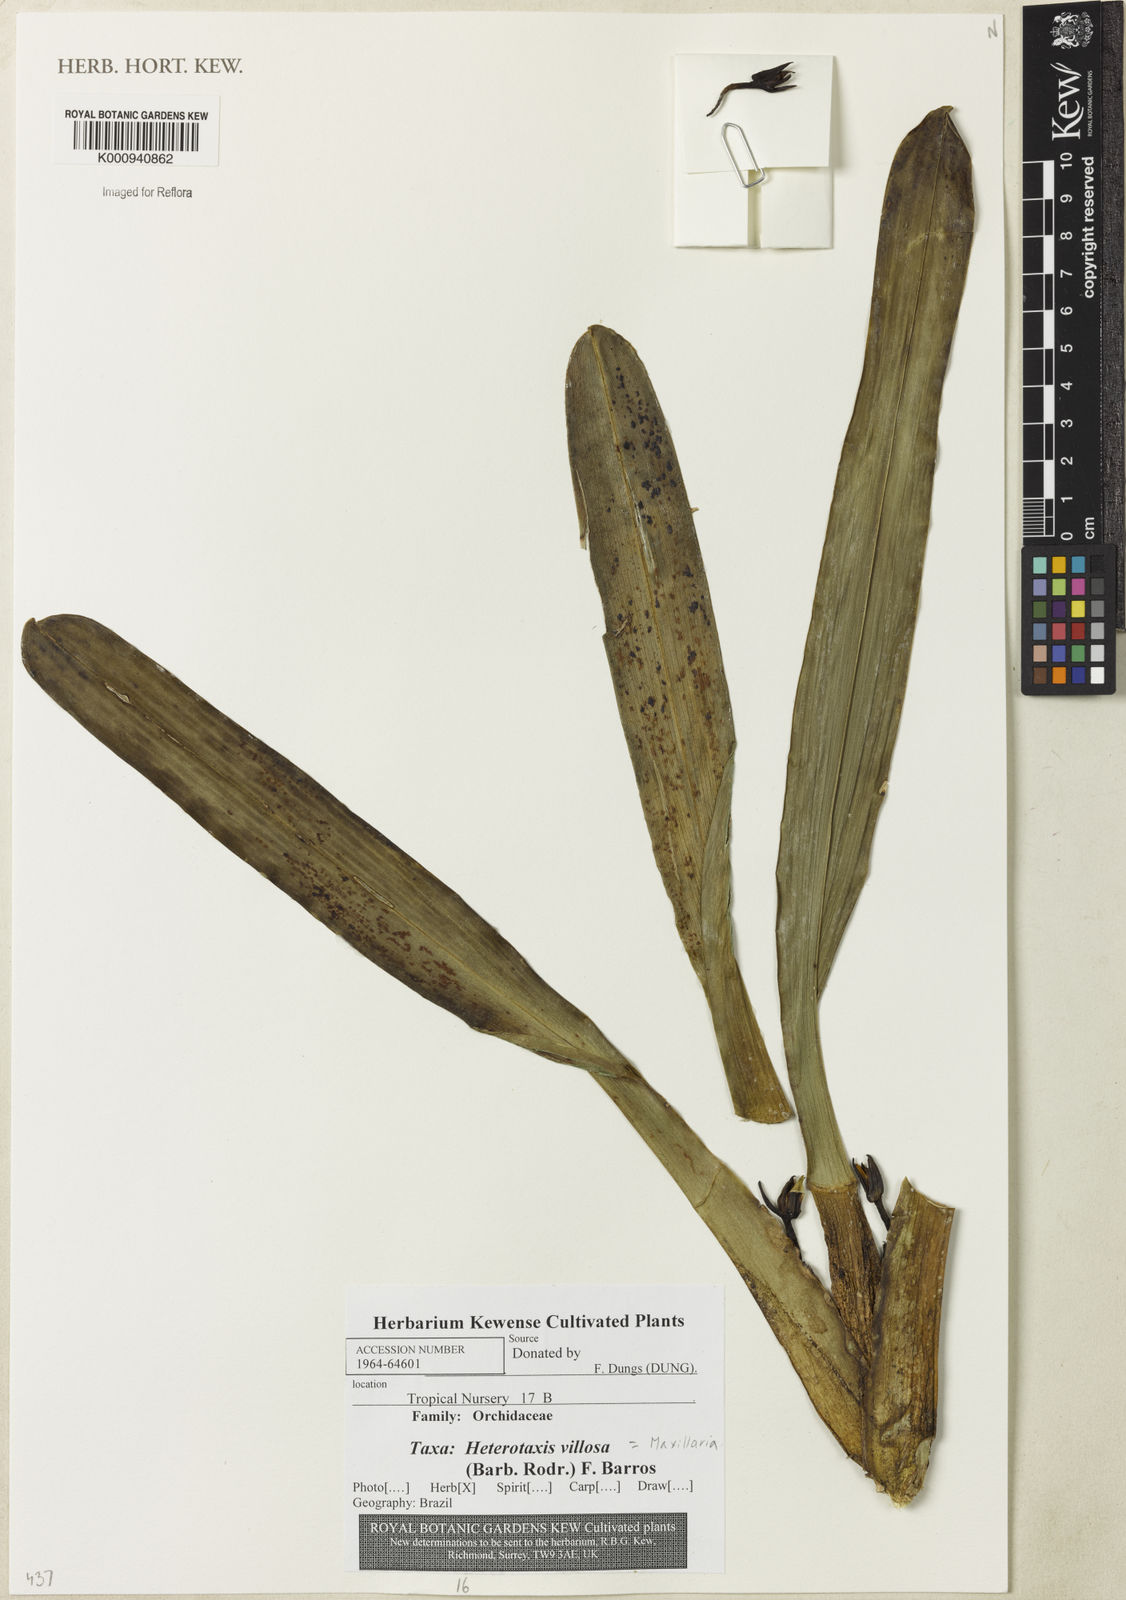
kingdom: Plantae
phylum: Tracheophyta
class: Liliopsida
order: Asparagales
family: Orchidaceae
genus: Maxillaria
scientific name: Maxillaria villosa
